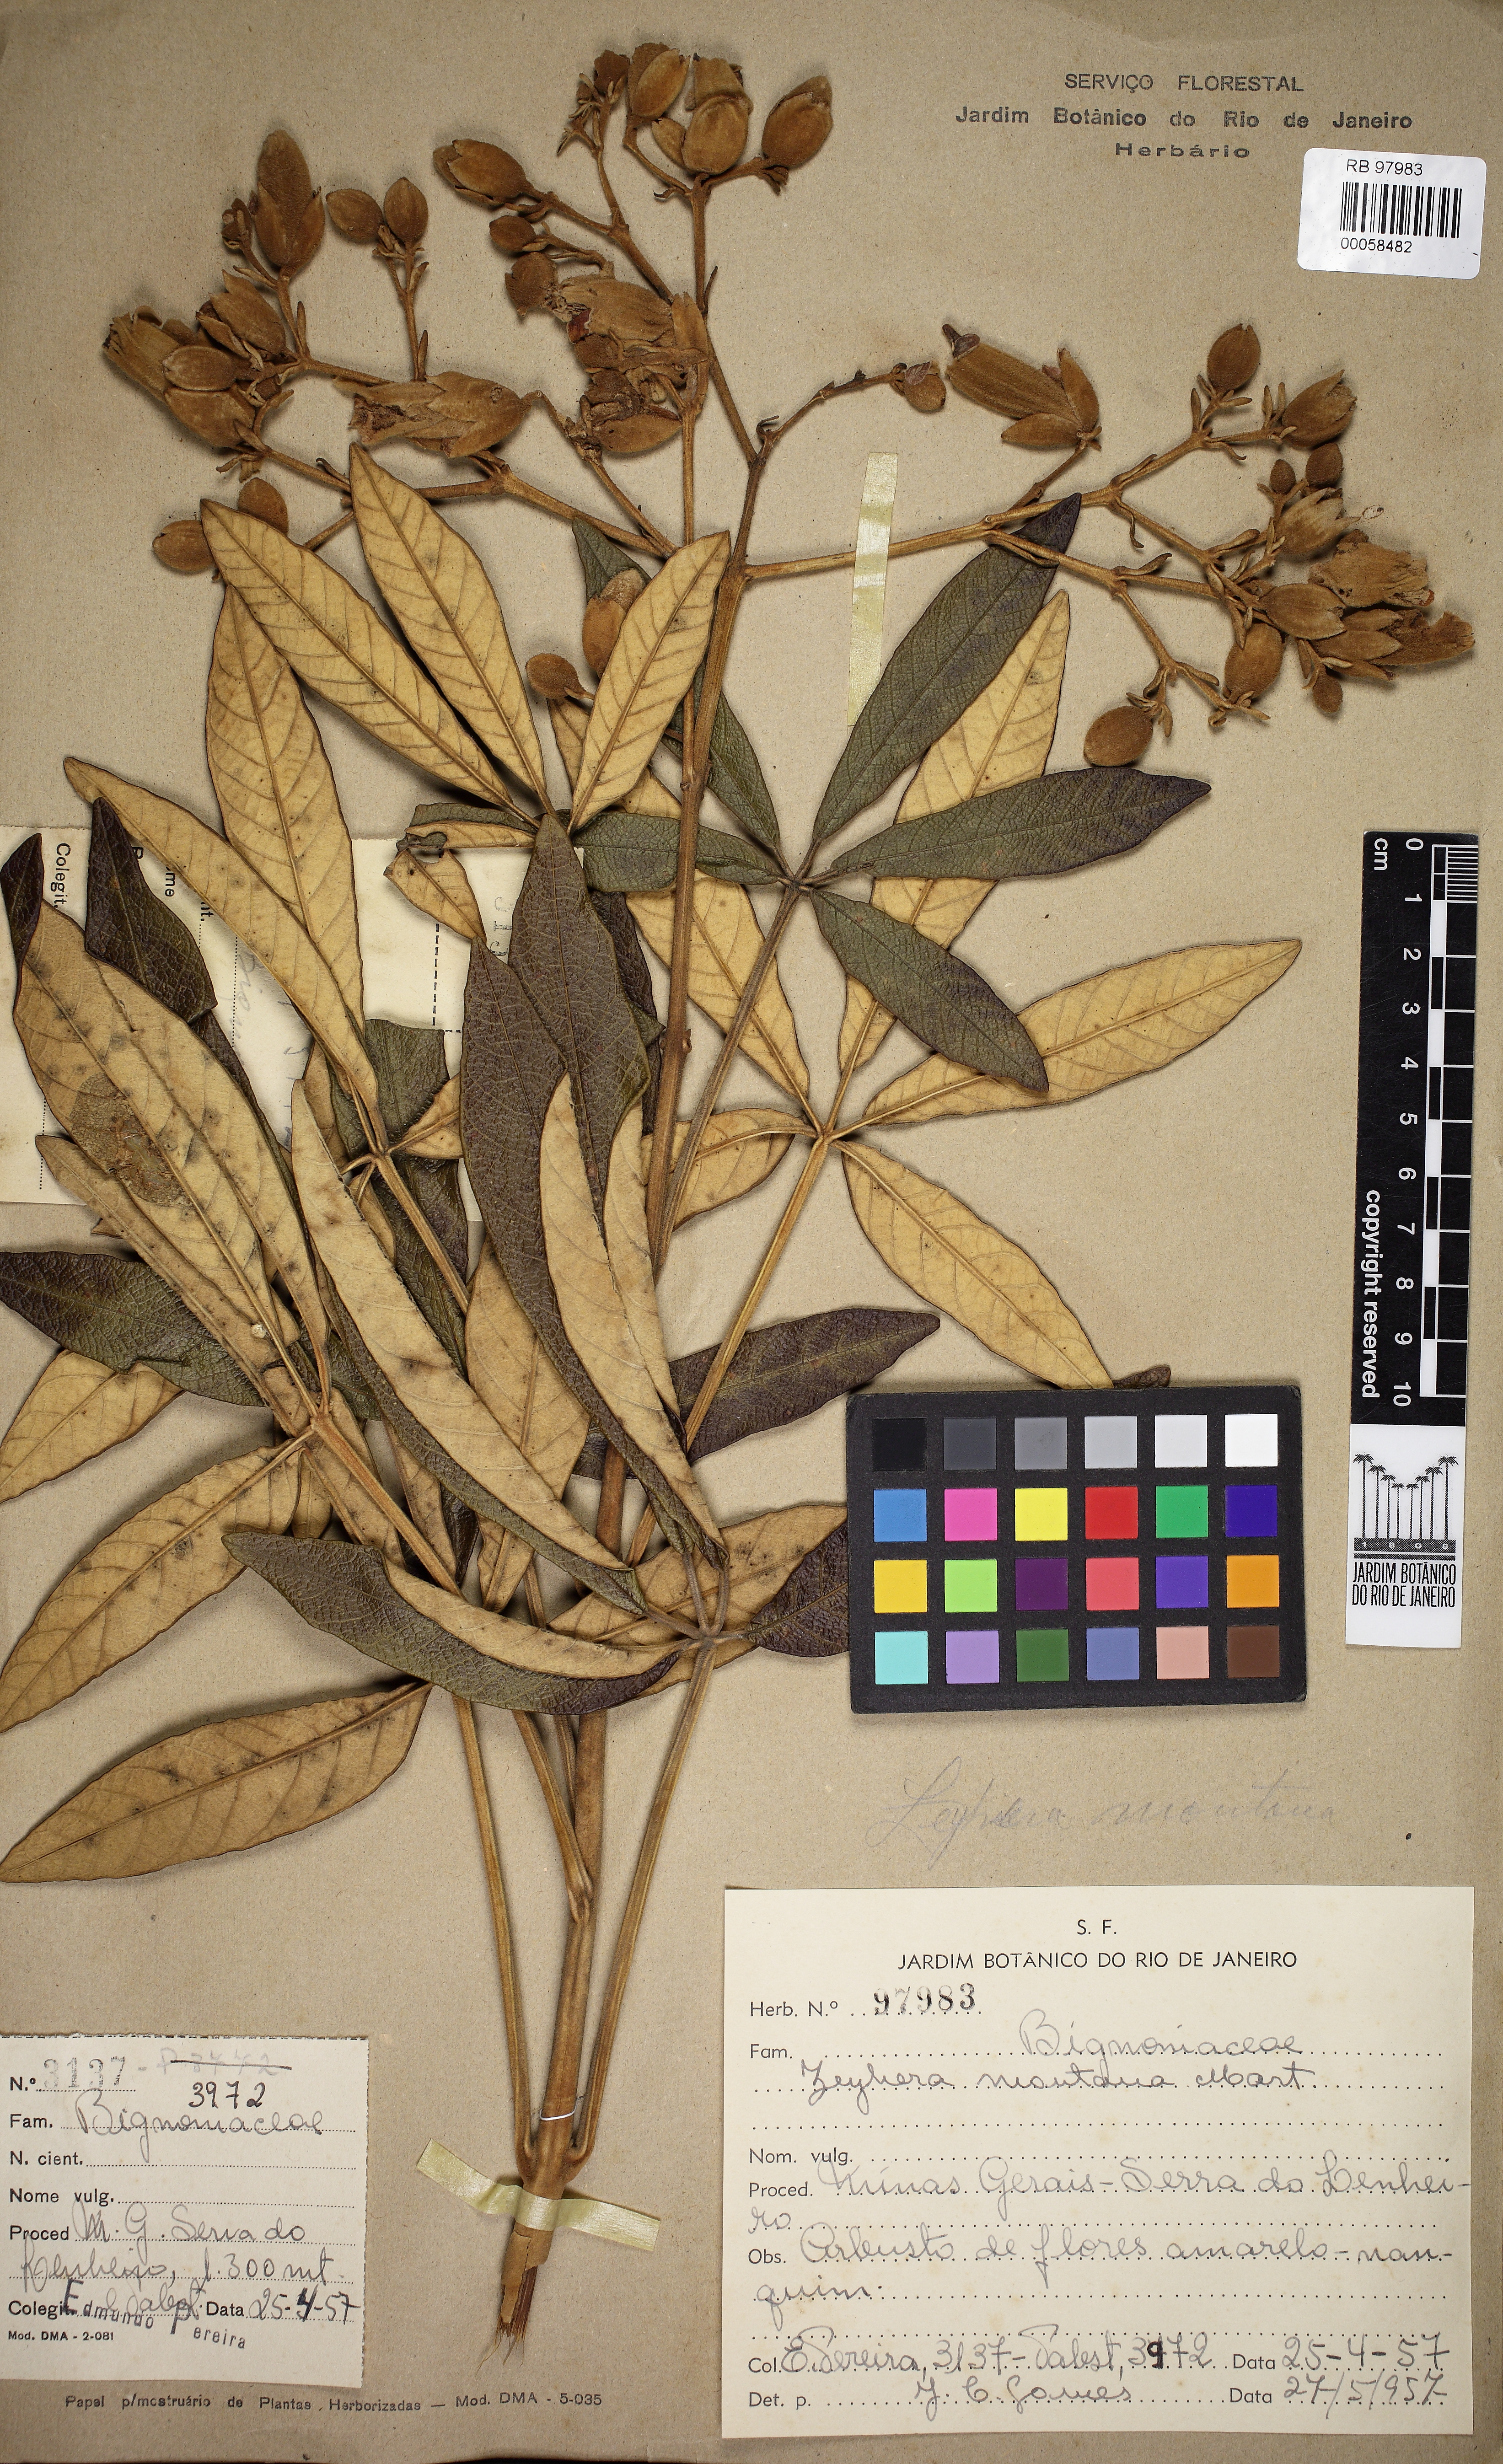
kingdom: Plantae
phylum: Tracheophyta
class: Magnoliopsida
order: Lamiales
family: Bignoniaceae
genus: Zeyheria
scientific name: Zeyheria montana
